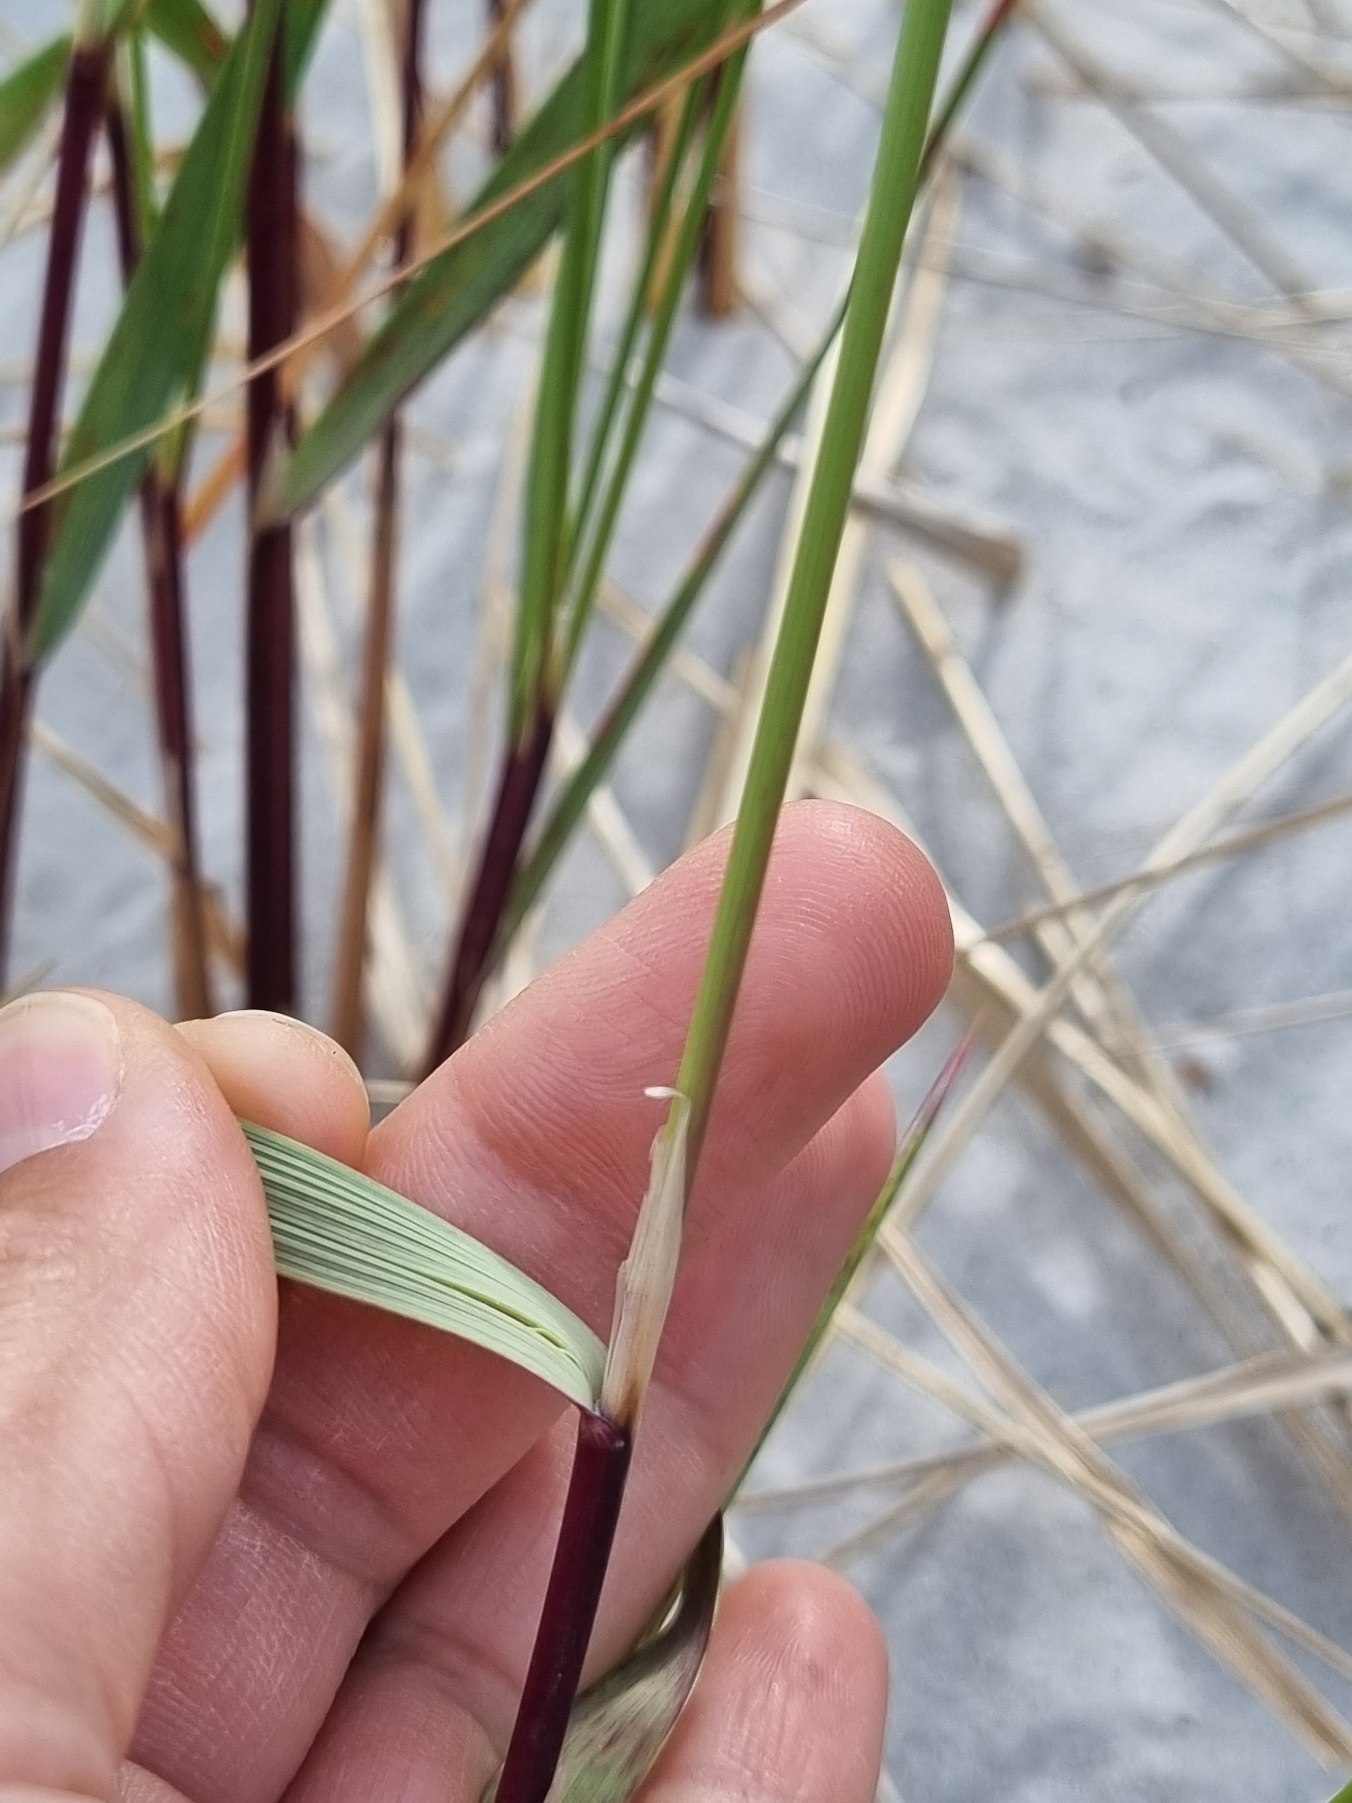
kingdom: Plantae
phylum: Tracheophyta
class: Liliopsida
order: Poales
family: Poaceae
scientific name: Poaceae
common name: Østersøhjælme
